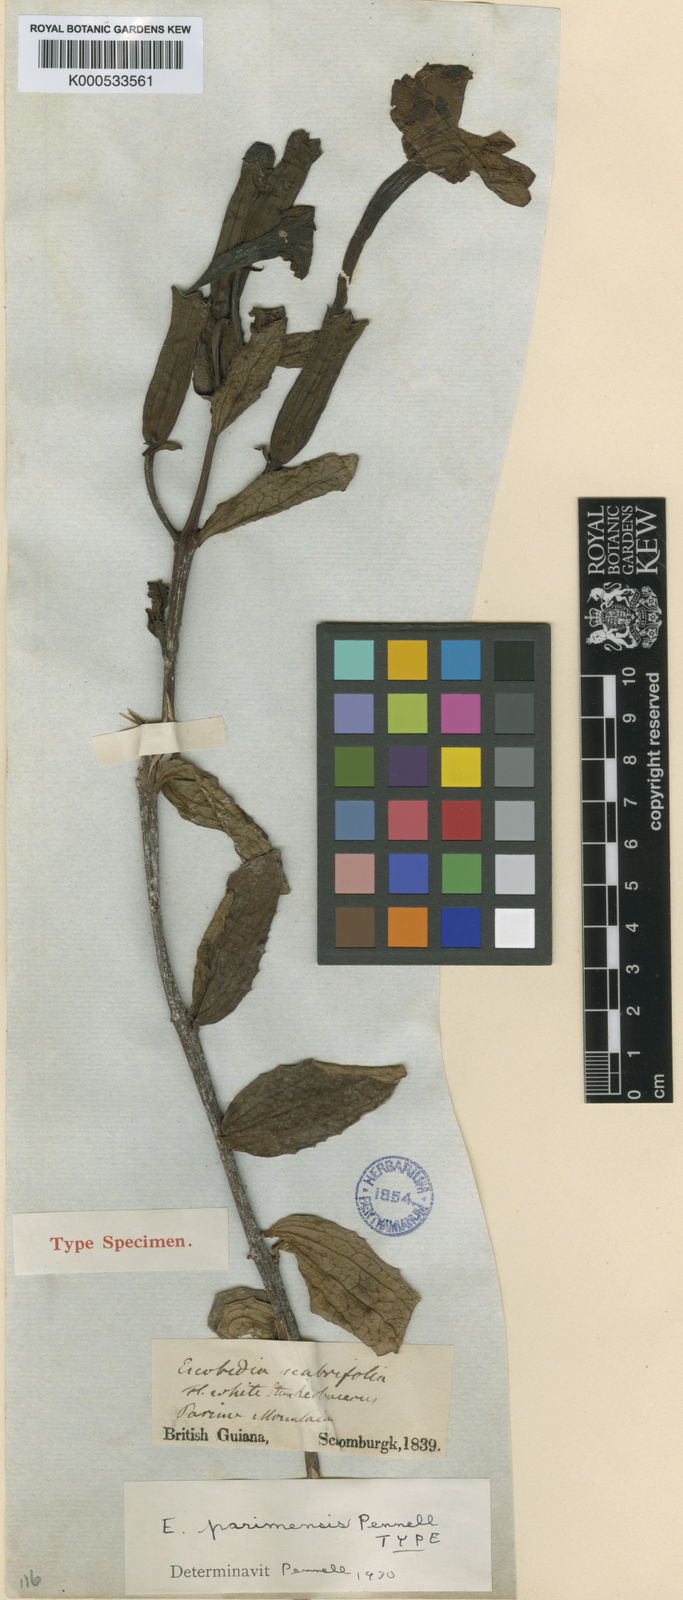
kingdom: Plantae
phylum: Tracheophyta
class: Magnoliopsida
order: Lamiales
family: Orobanchaceae
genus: Escobedia
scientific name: Escobedia grandiflora
